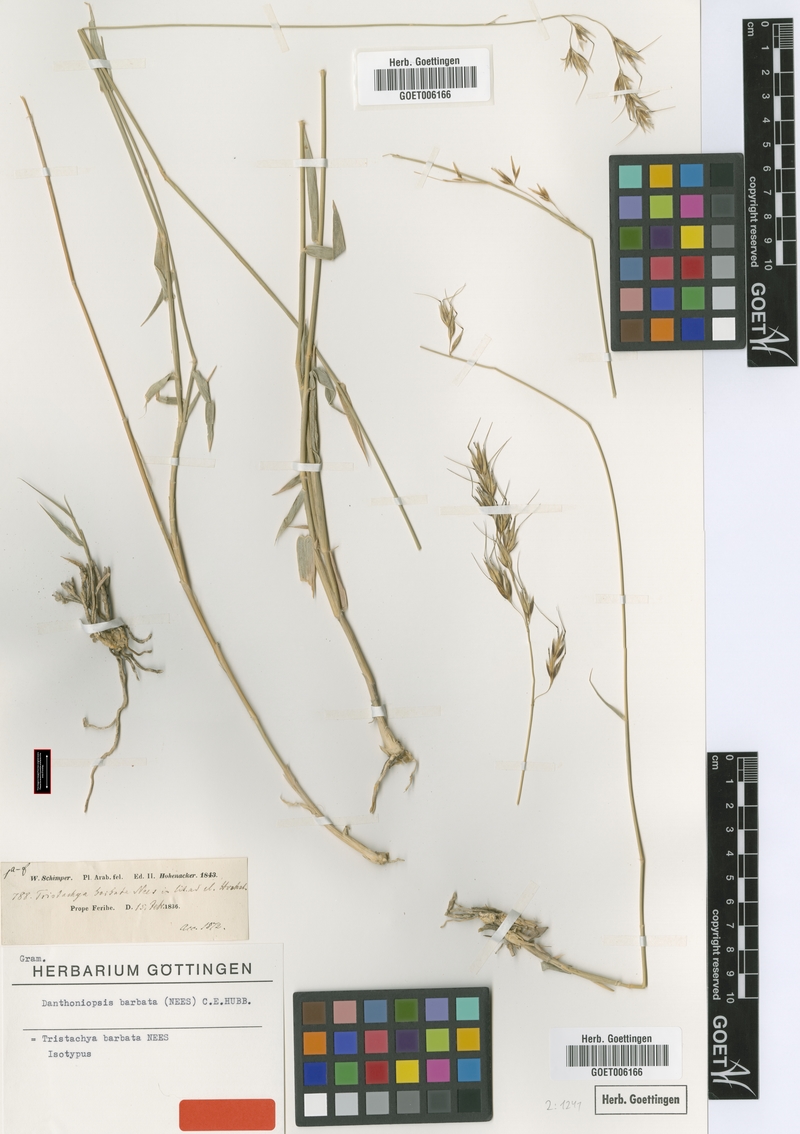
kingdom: Plantae
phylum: Tracheophyta
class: Liliopsida
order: Poales
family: Poaceae
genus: Danthoniopsis
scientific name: Danthoniopsis barbata
